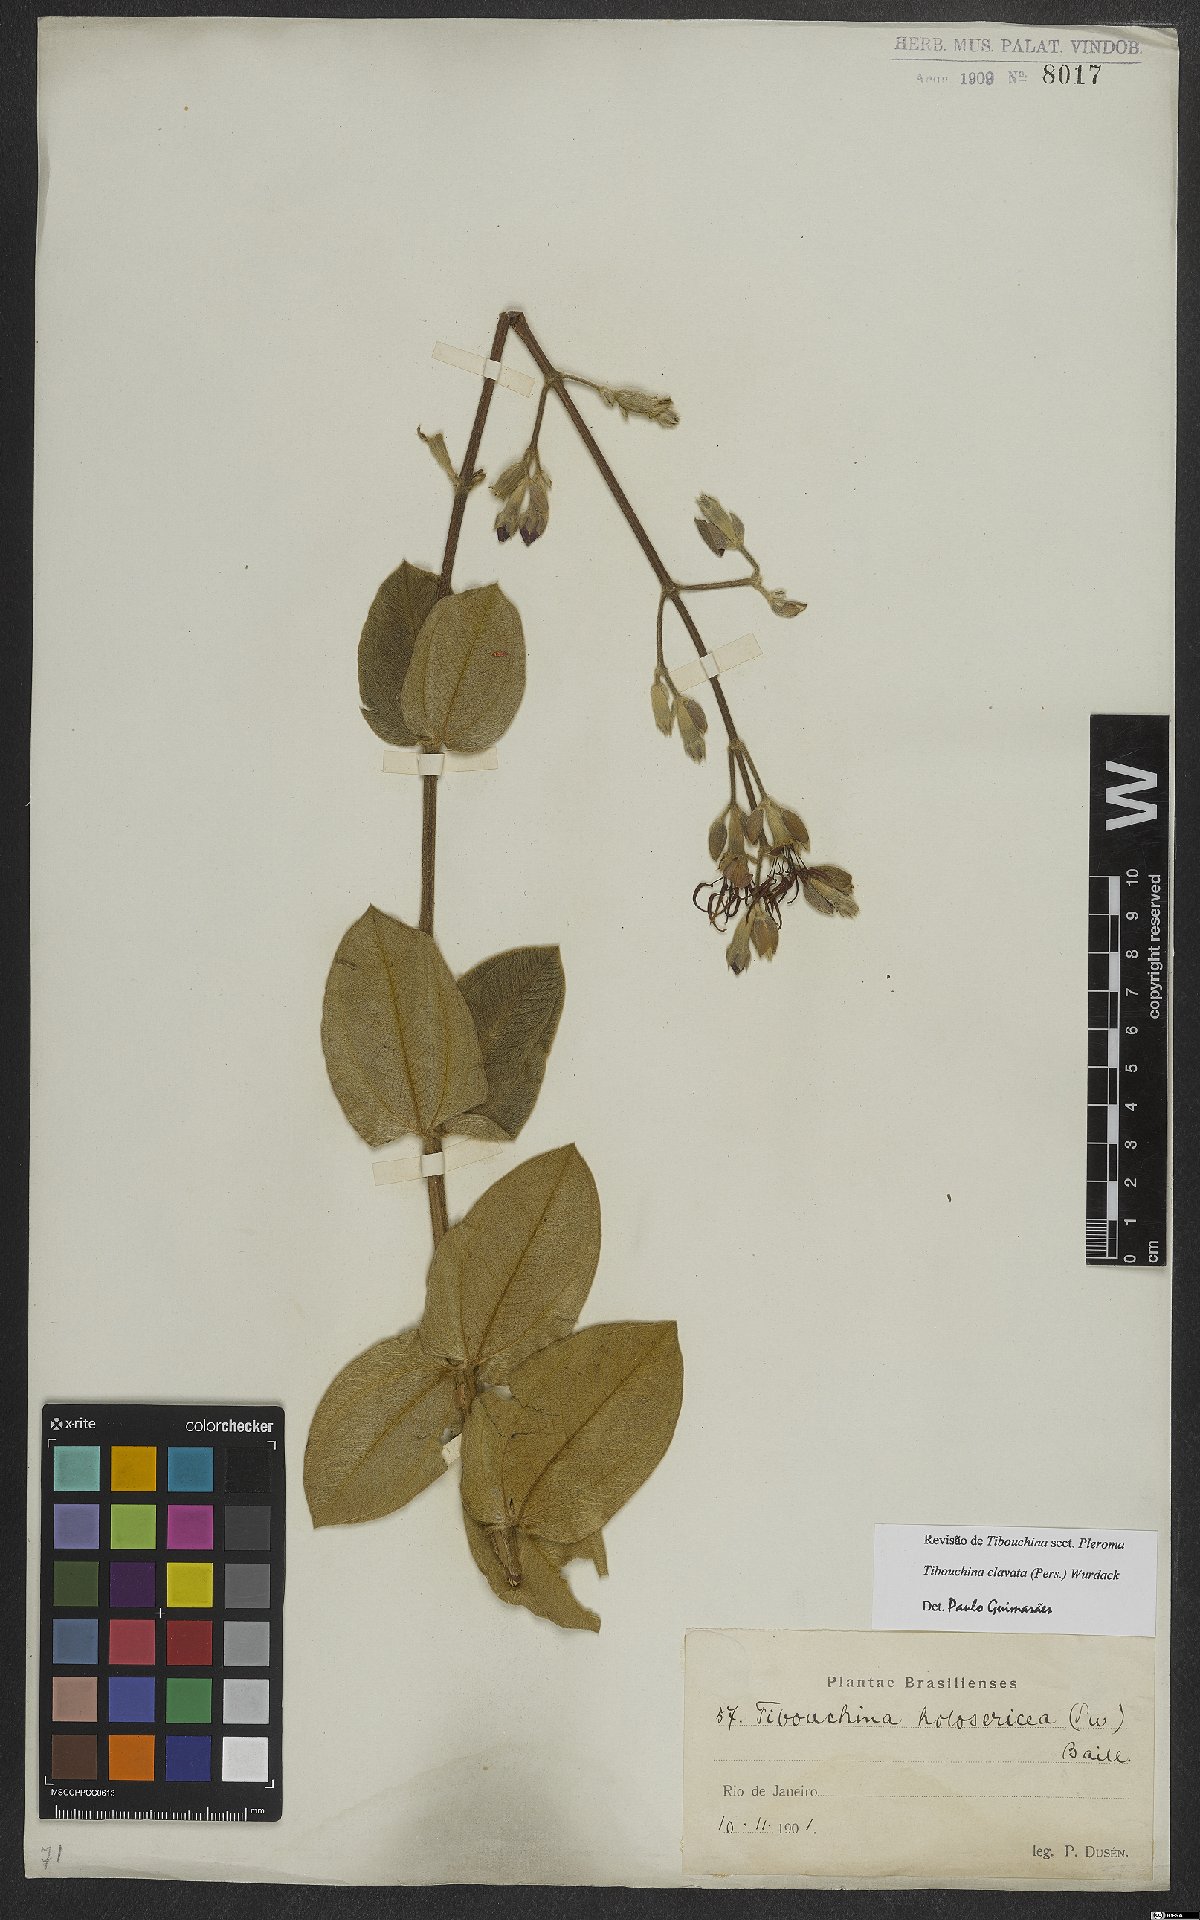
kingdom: Plantae
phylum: Tracheophyta
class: Magnoliopsida
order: Myrtales
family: Melastomataceae
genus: Pleroma
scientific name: Pleroma clavatum
